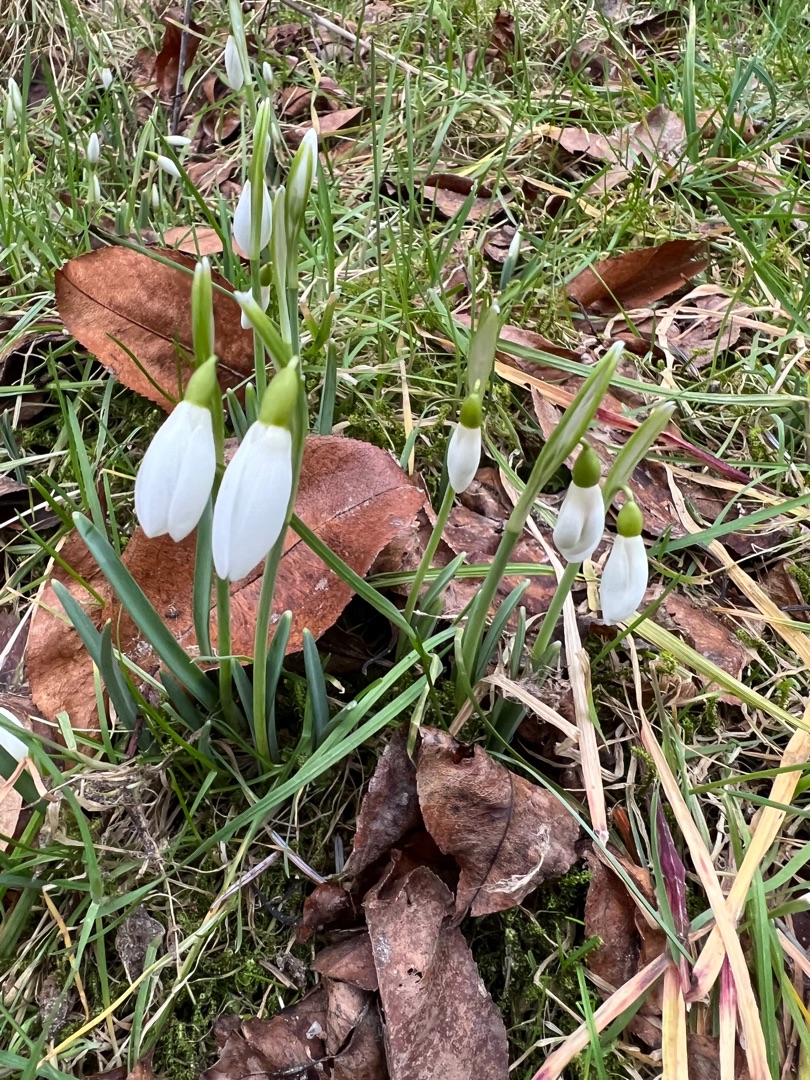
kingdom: Plantae
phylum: Tracheophyta
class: Liliopsida
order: Asparagales
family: Amaryllidaceae
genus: Galanthus
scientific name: Galanthus nivalis
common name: Vintergæk
